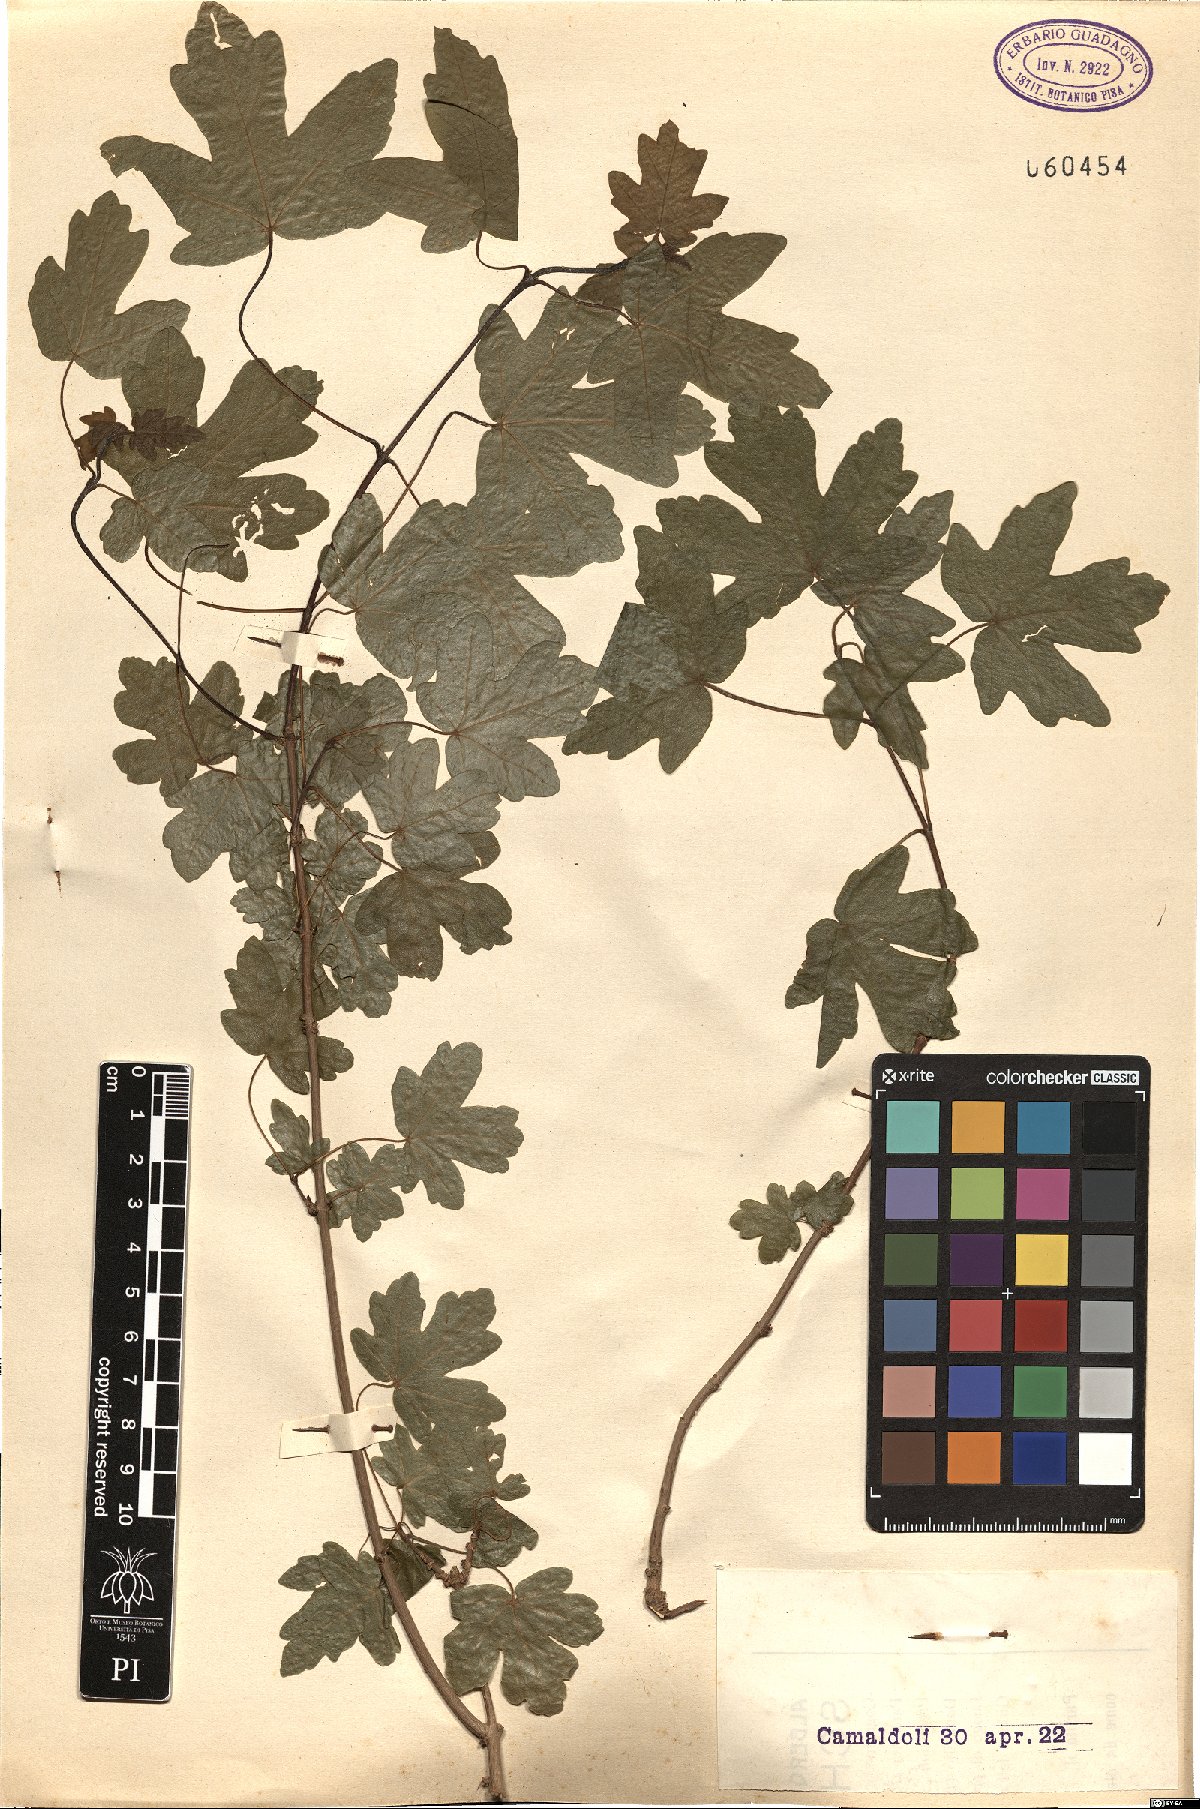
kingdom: Plantae
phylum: Tracheophyta
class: Magnoliopsida
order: Sapindales
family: Sapindaceae
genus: Acer
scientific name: Acer campestre
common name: Field maple
